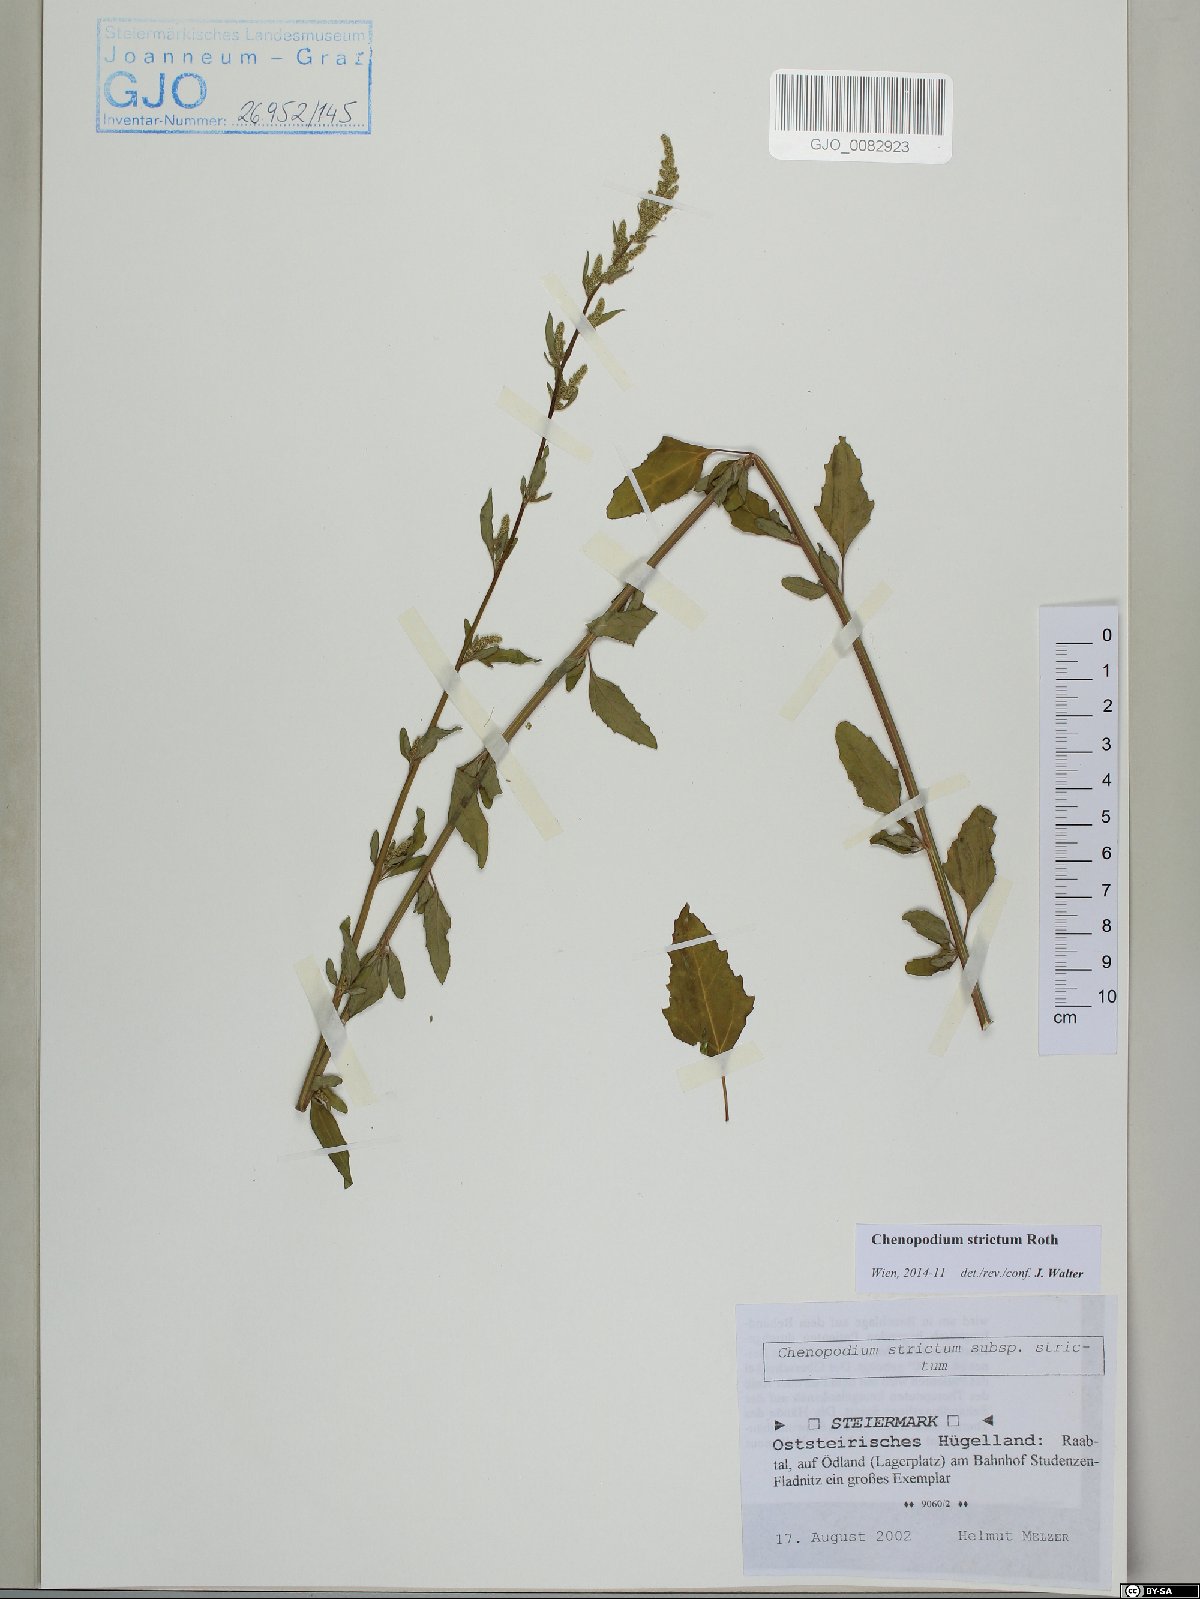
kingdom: Plantae
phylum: Tracheophyta
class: Magnoliopsida
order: Caryophyllales
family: Amaranthaceae
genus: Chenopodium
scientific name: Chenopodium album
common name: Fat-hen
